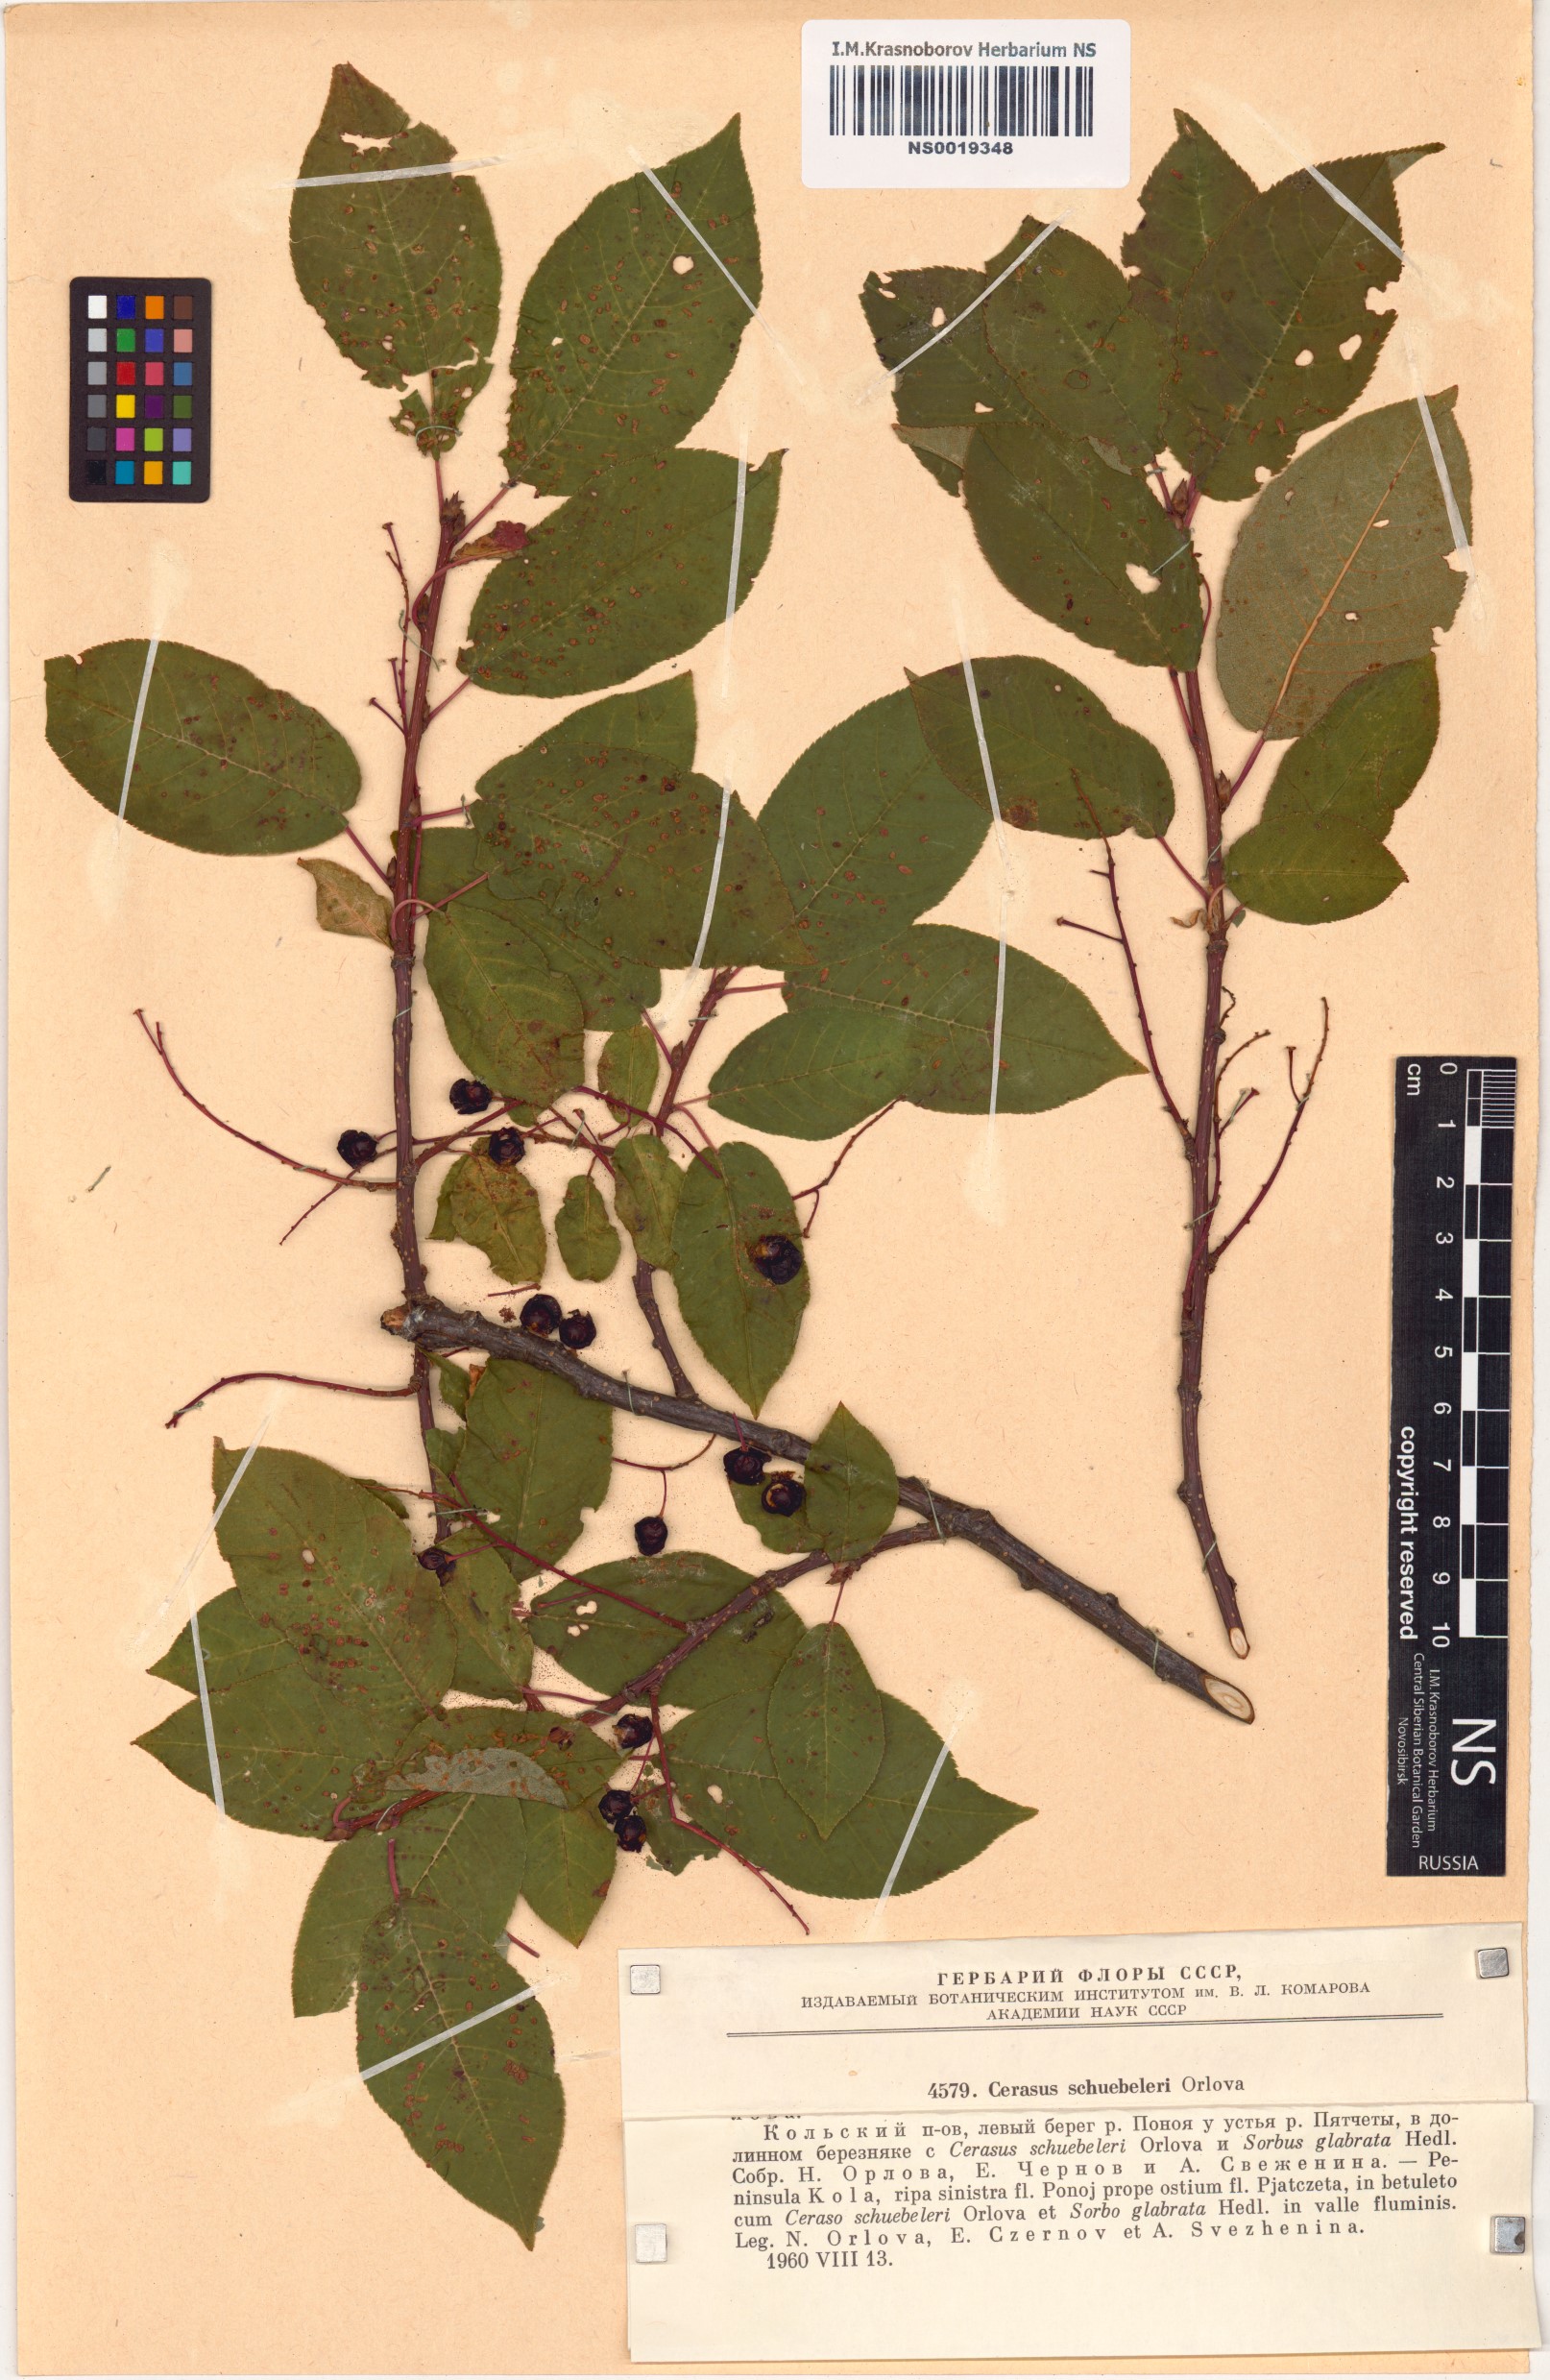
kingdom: Plantae
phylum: Tracheophyta
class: Magnoliopsida
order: Rosales
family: Rosaceae
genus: Prunus
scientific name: Prunus padus
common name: Bird cherry
